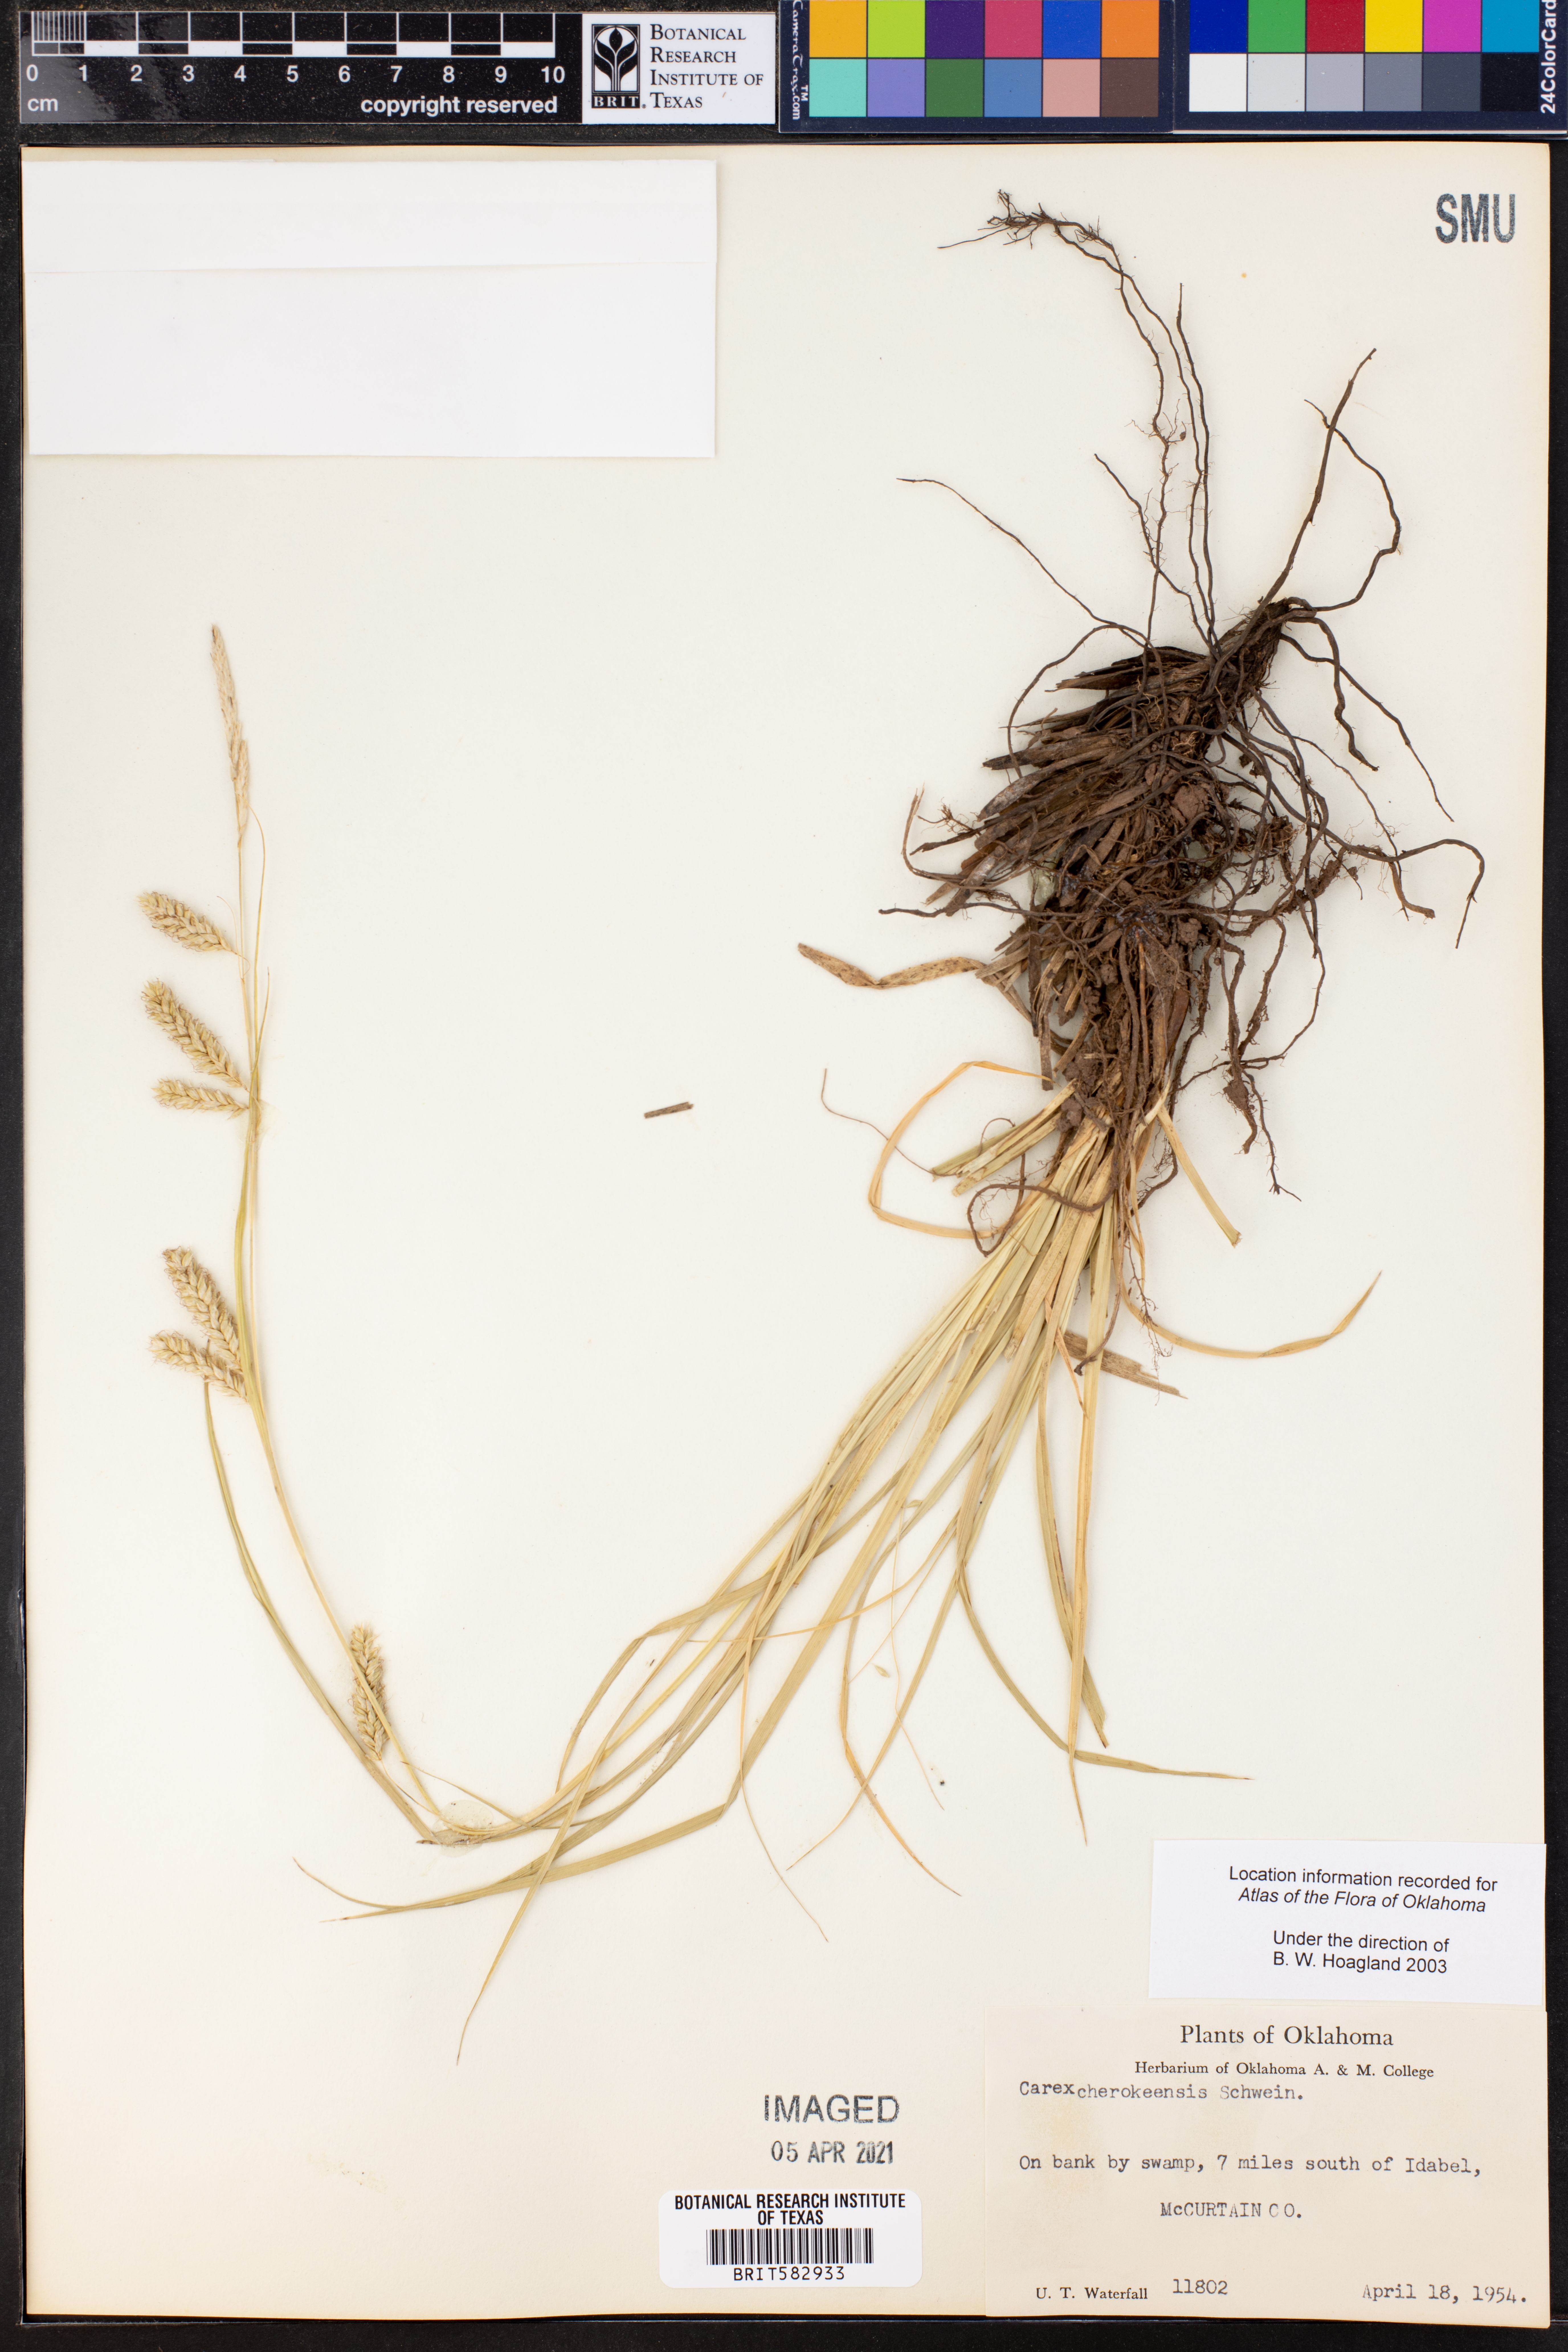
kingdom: Plantae
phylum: Tracheophyta
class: Liliopsida
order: Poales
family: Cyperaceae
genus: Carex
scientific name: Carex cherokeensis
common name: Cherokee sedge
